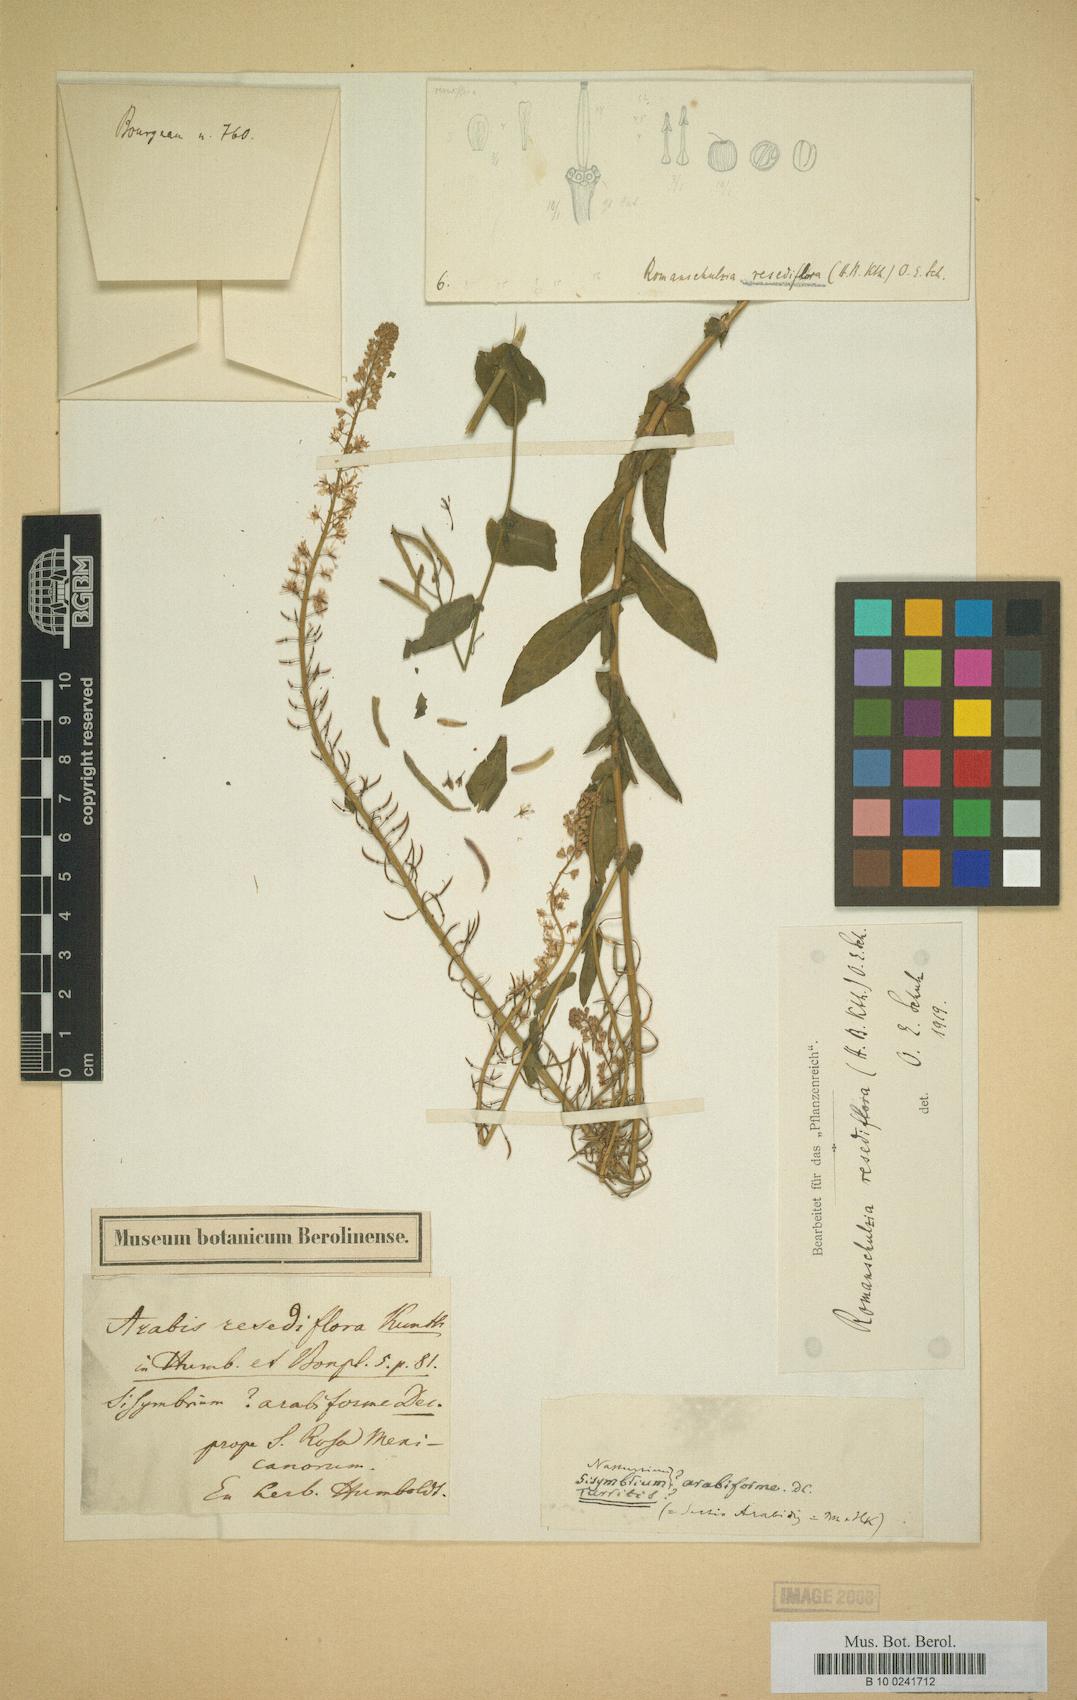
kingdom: Plantae
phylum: Tracheophyta
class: Magnoliopsida
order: Brassicales
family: Brassicaceae
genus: Romanschulzia
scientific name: Romanschulzia arabiformis
